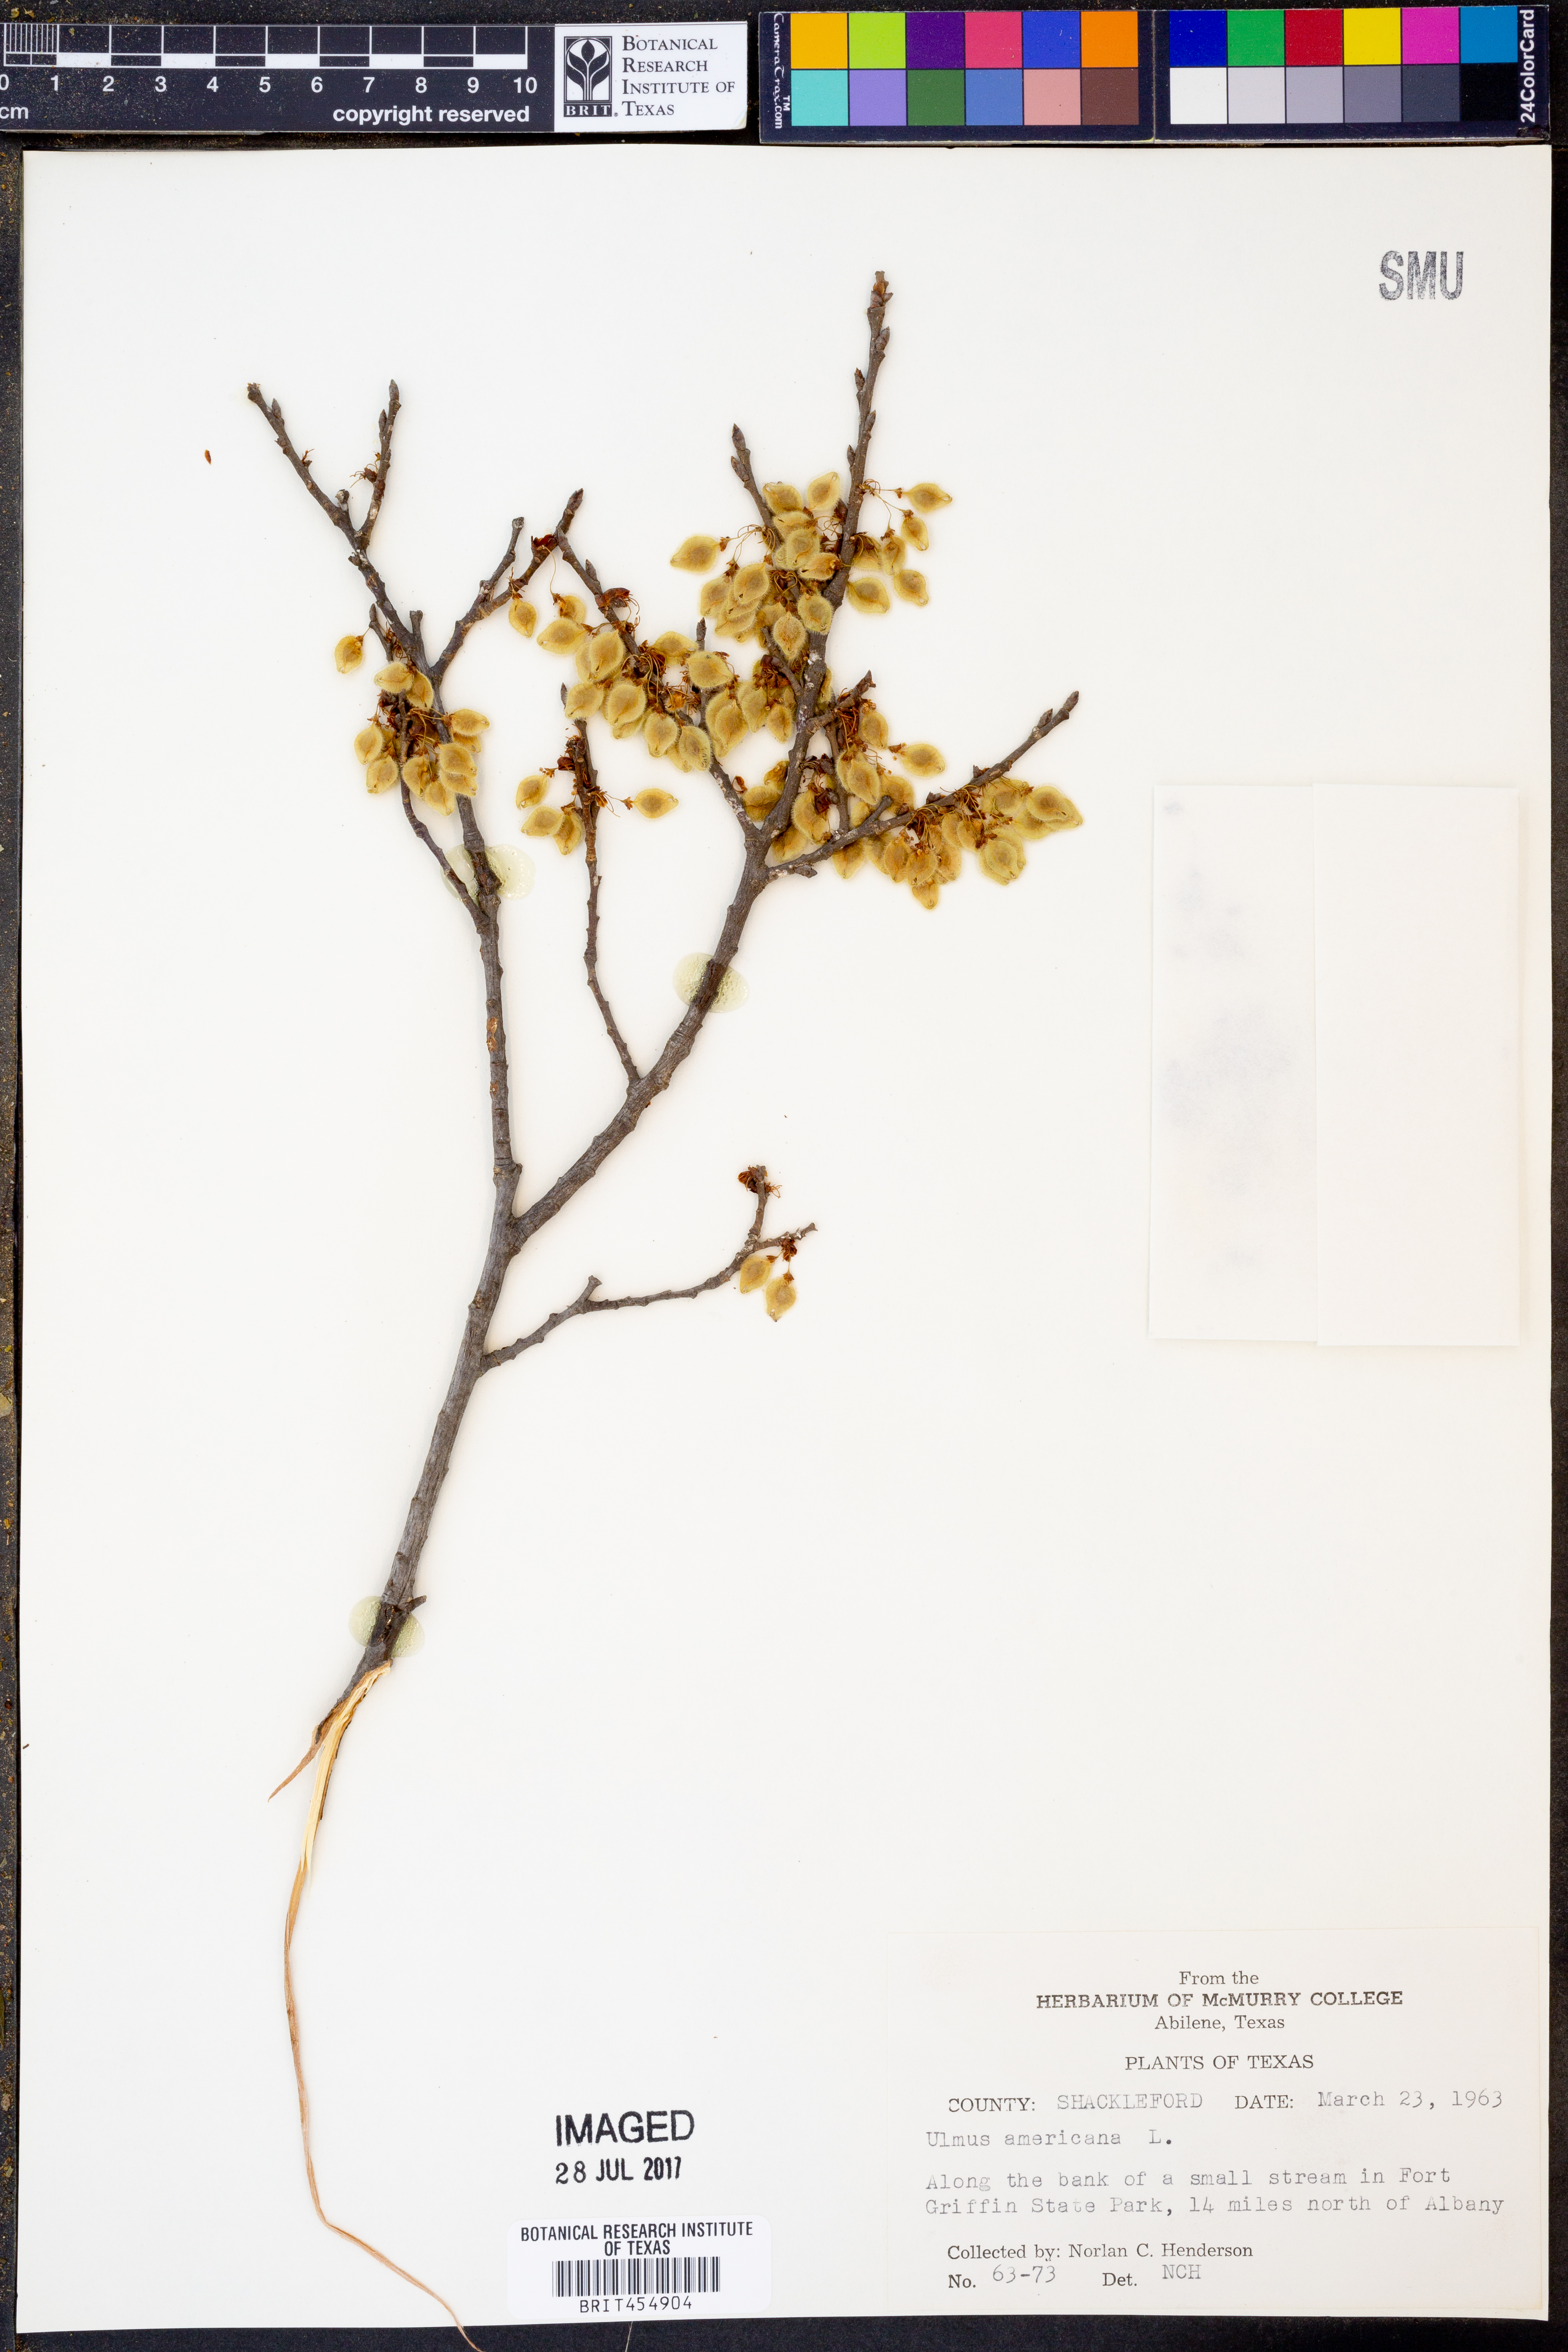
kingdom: Plantae
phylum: Tracheophyta
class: Magnoliopsida
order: Rosales
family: Ulmaceae
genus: Ulmus
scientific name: Ulmus americana
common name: American elm
